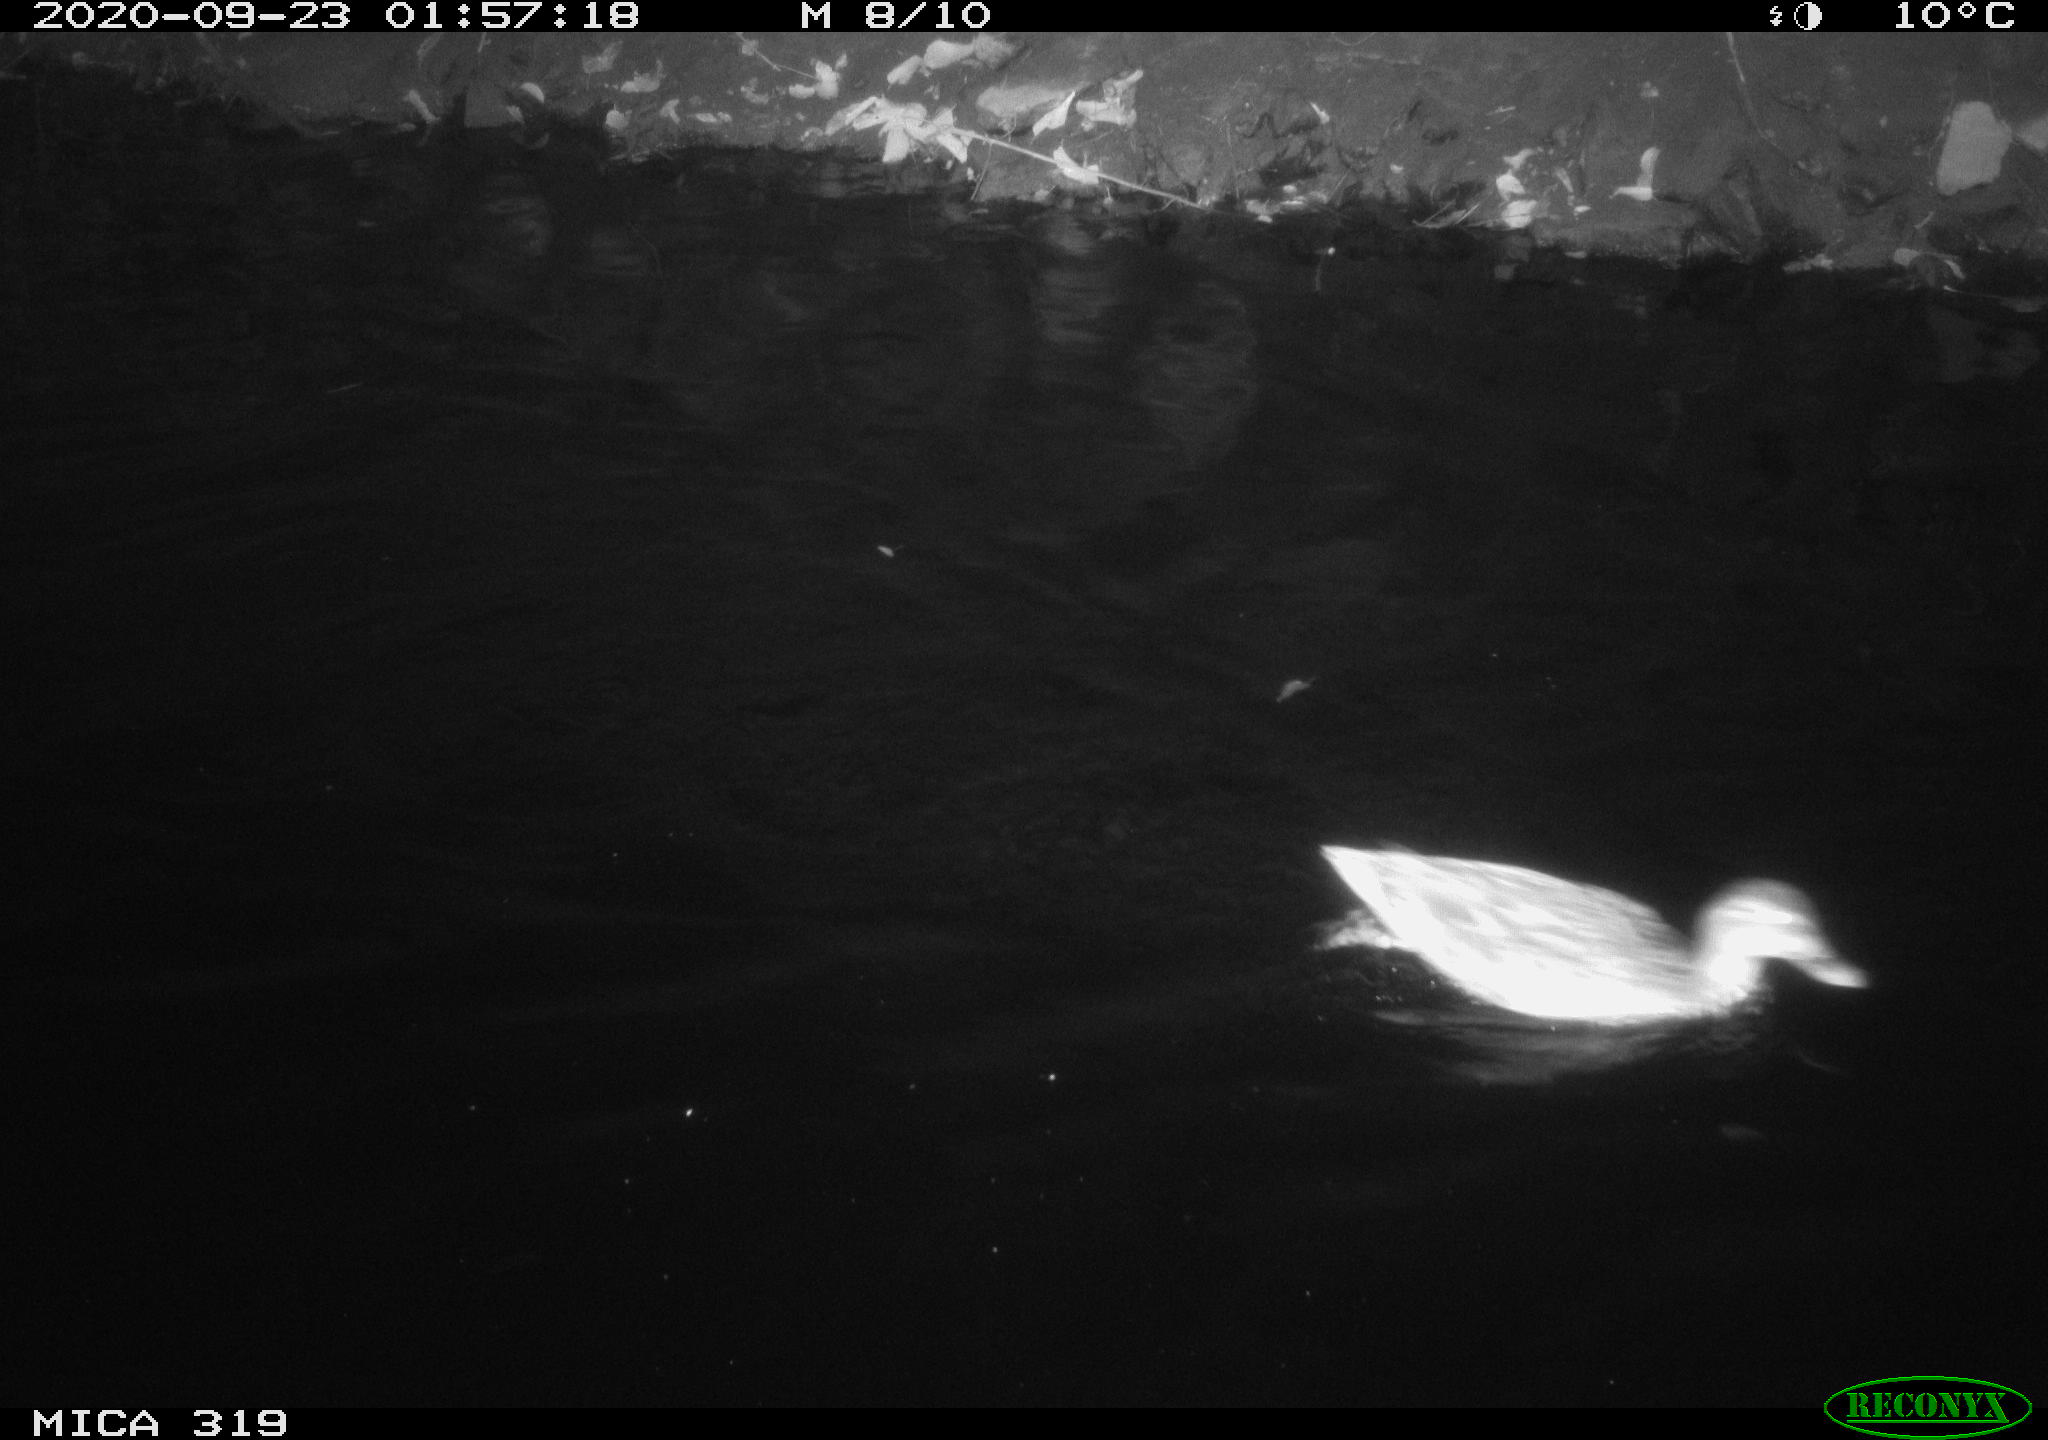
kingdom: Animalia
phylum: Chordata
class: Aves
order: Anseriformes
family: Anatidae
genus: Anas
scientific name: Anas platyrhynchos
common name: Mallard
